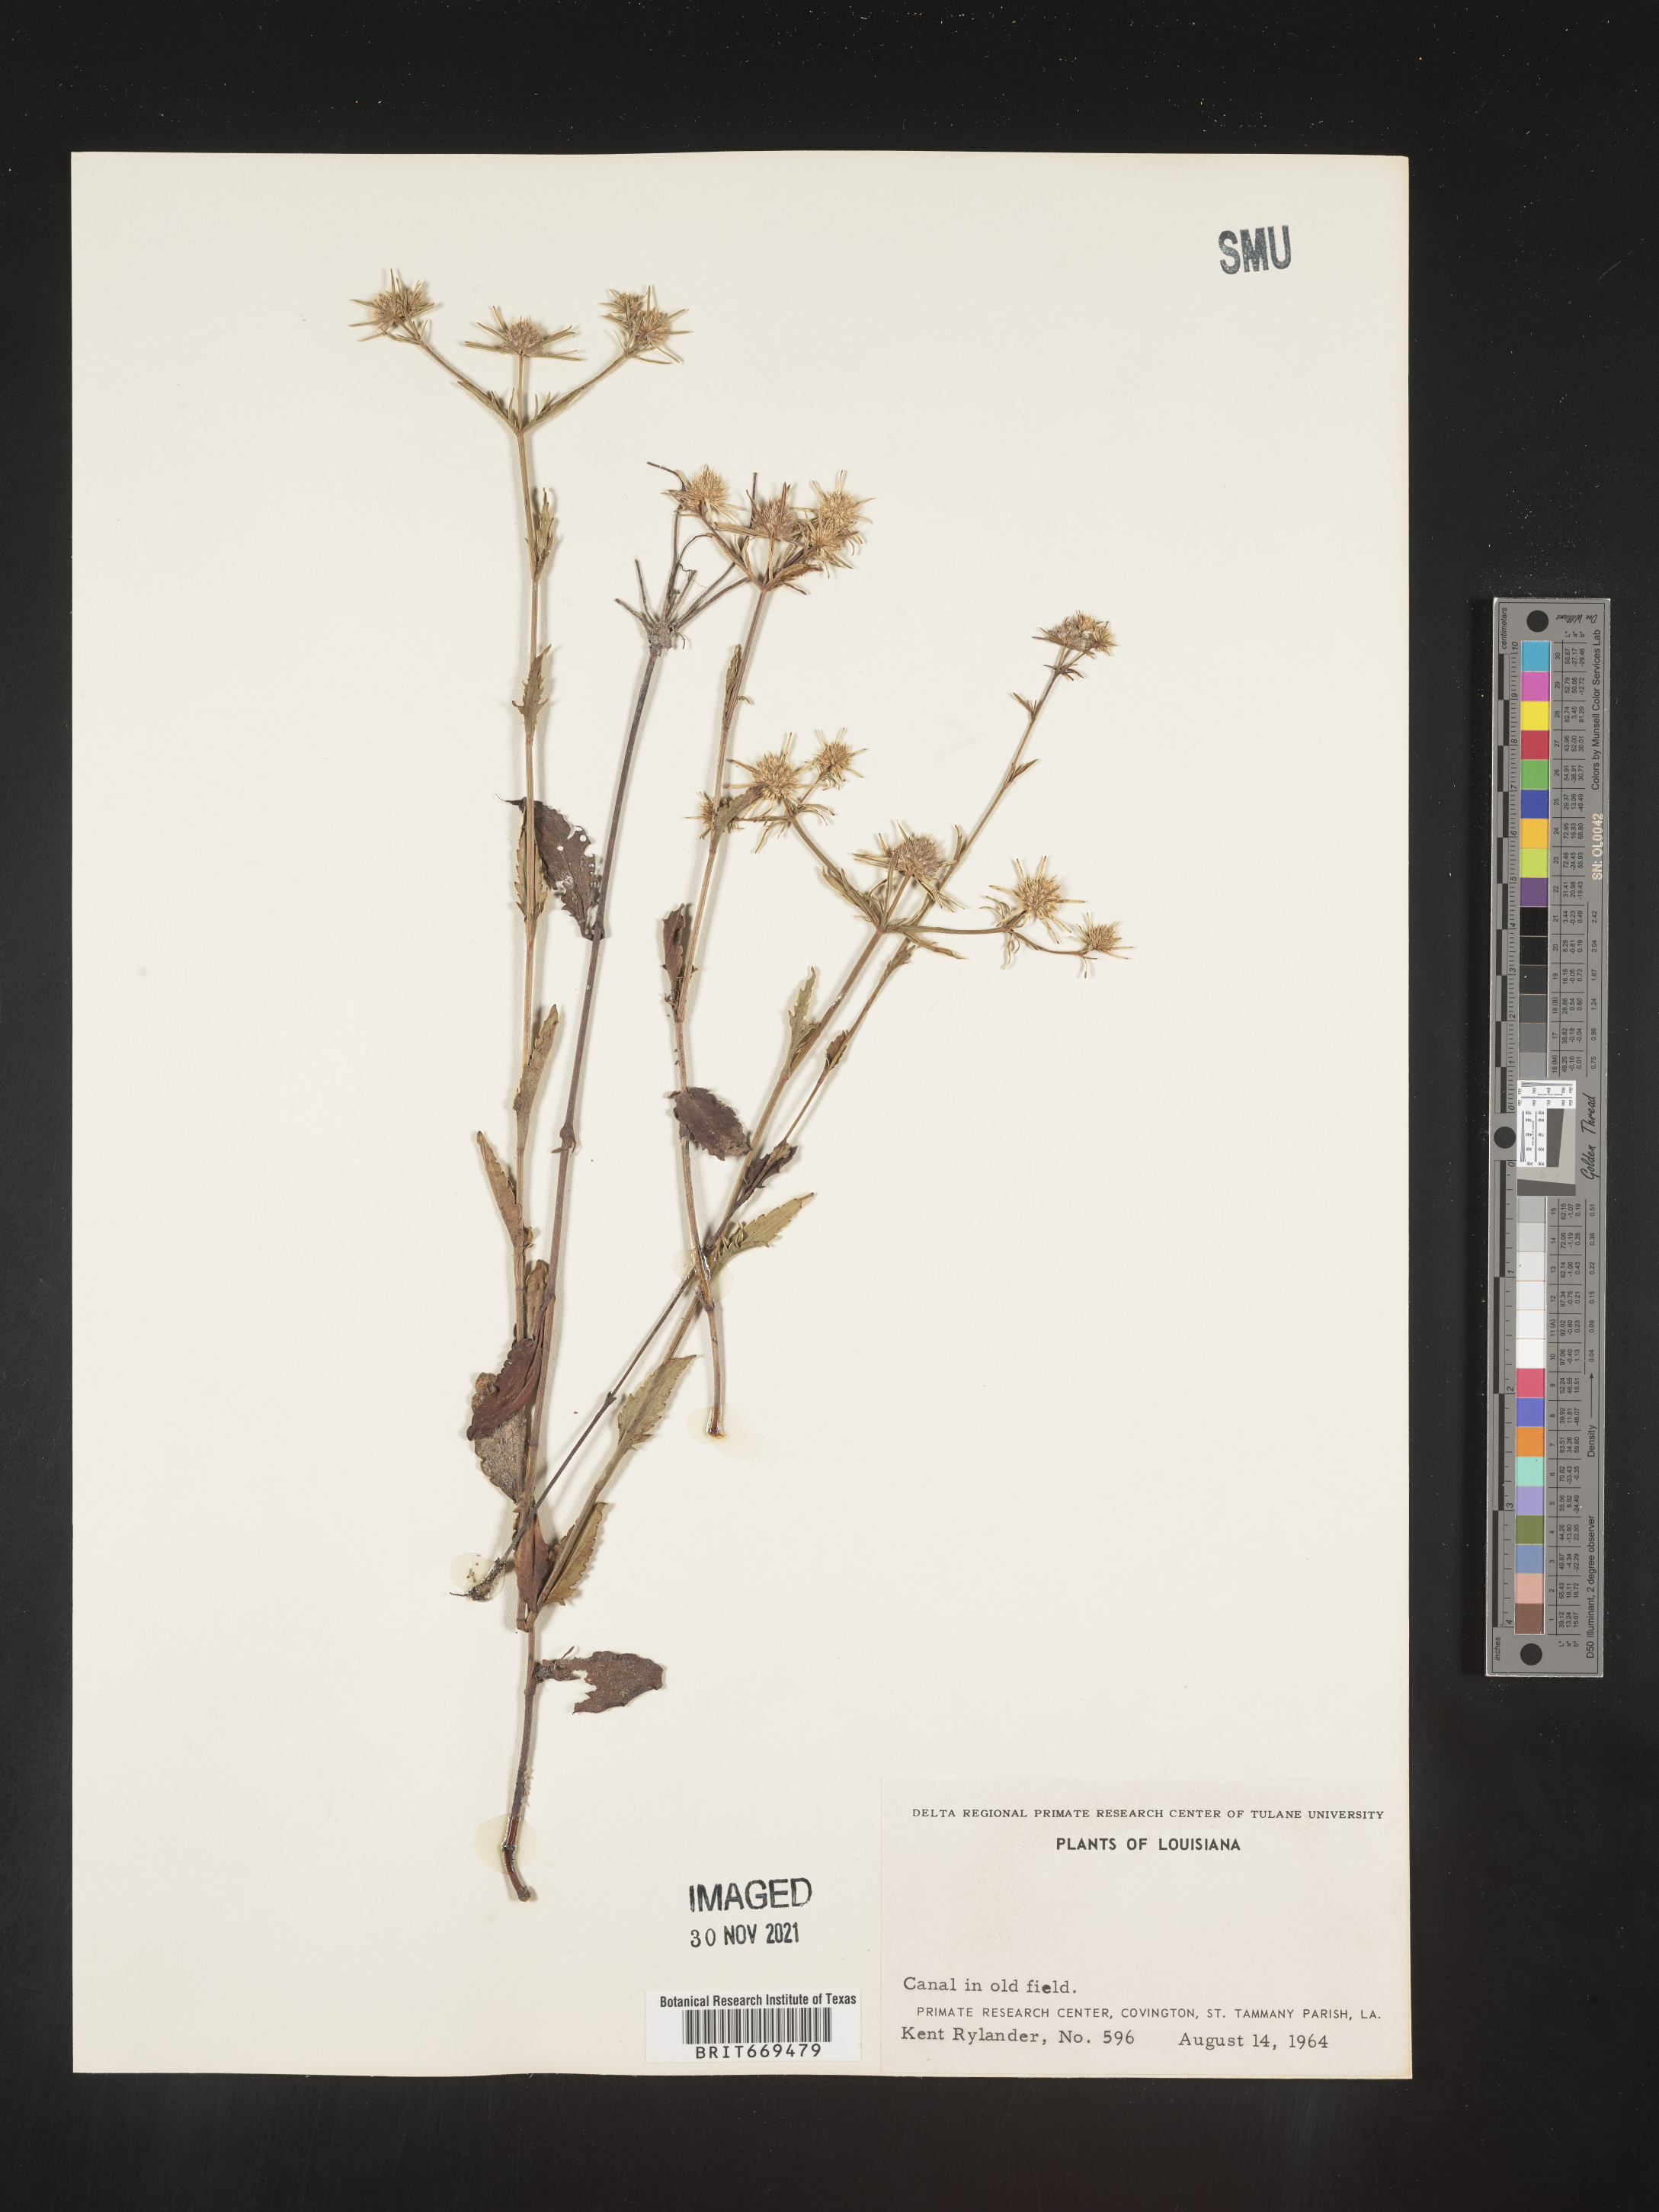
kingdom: Plantae
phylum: Tracheophyta
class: Magnoliopsida
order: Apiales
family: Apiaceae
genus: Eryngium
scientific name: Eryngium integrifolium
